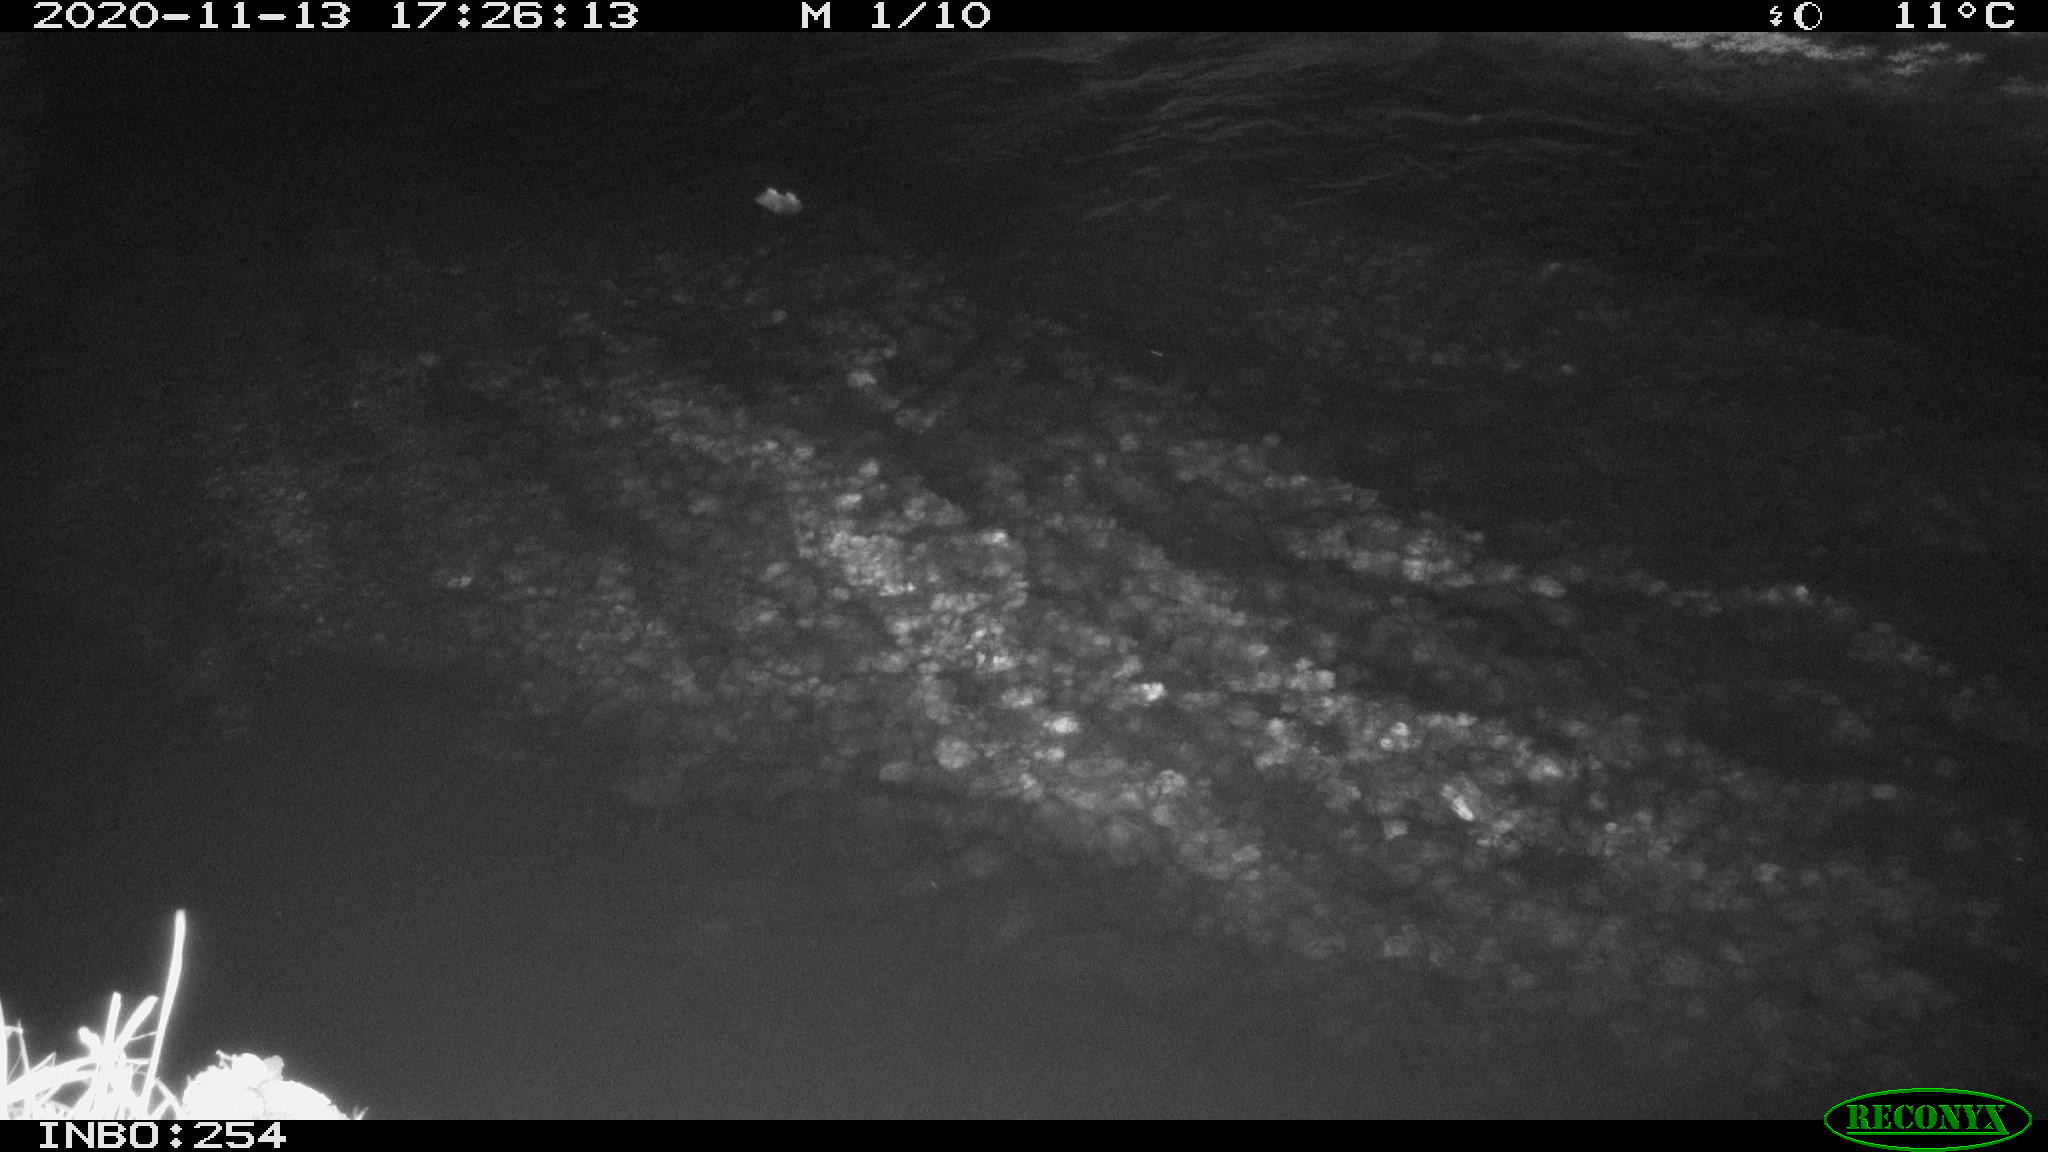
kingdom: Animalia
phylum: Chordata
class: Aves
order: Anseriformes
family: Anatidae
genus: Anas
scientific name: Anas platyrhynchos
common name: Mallard
